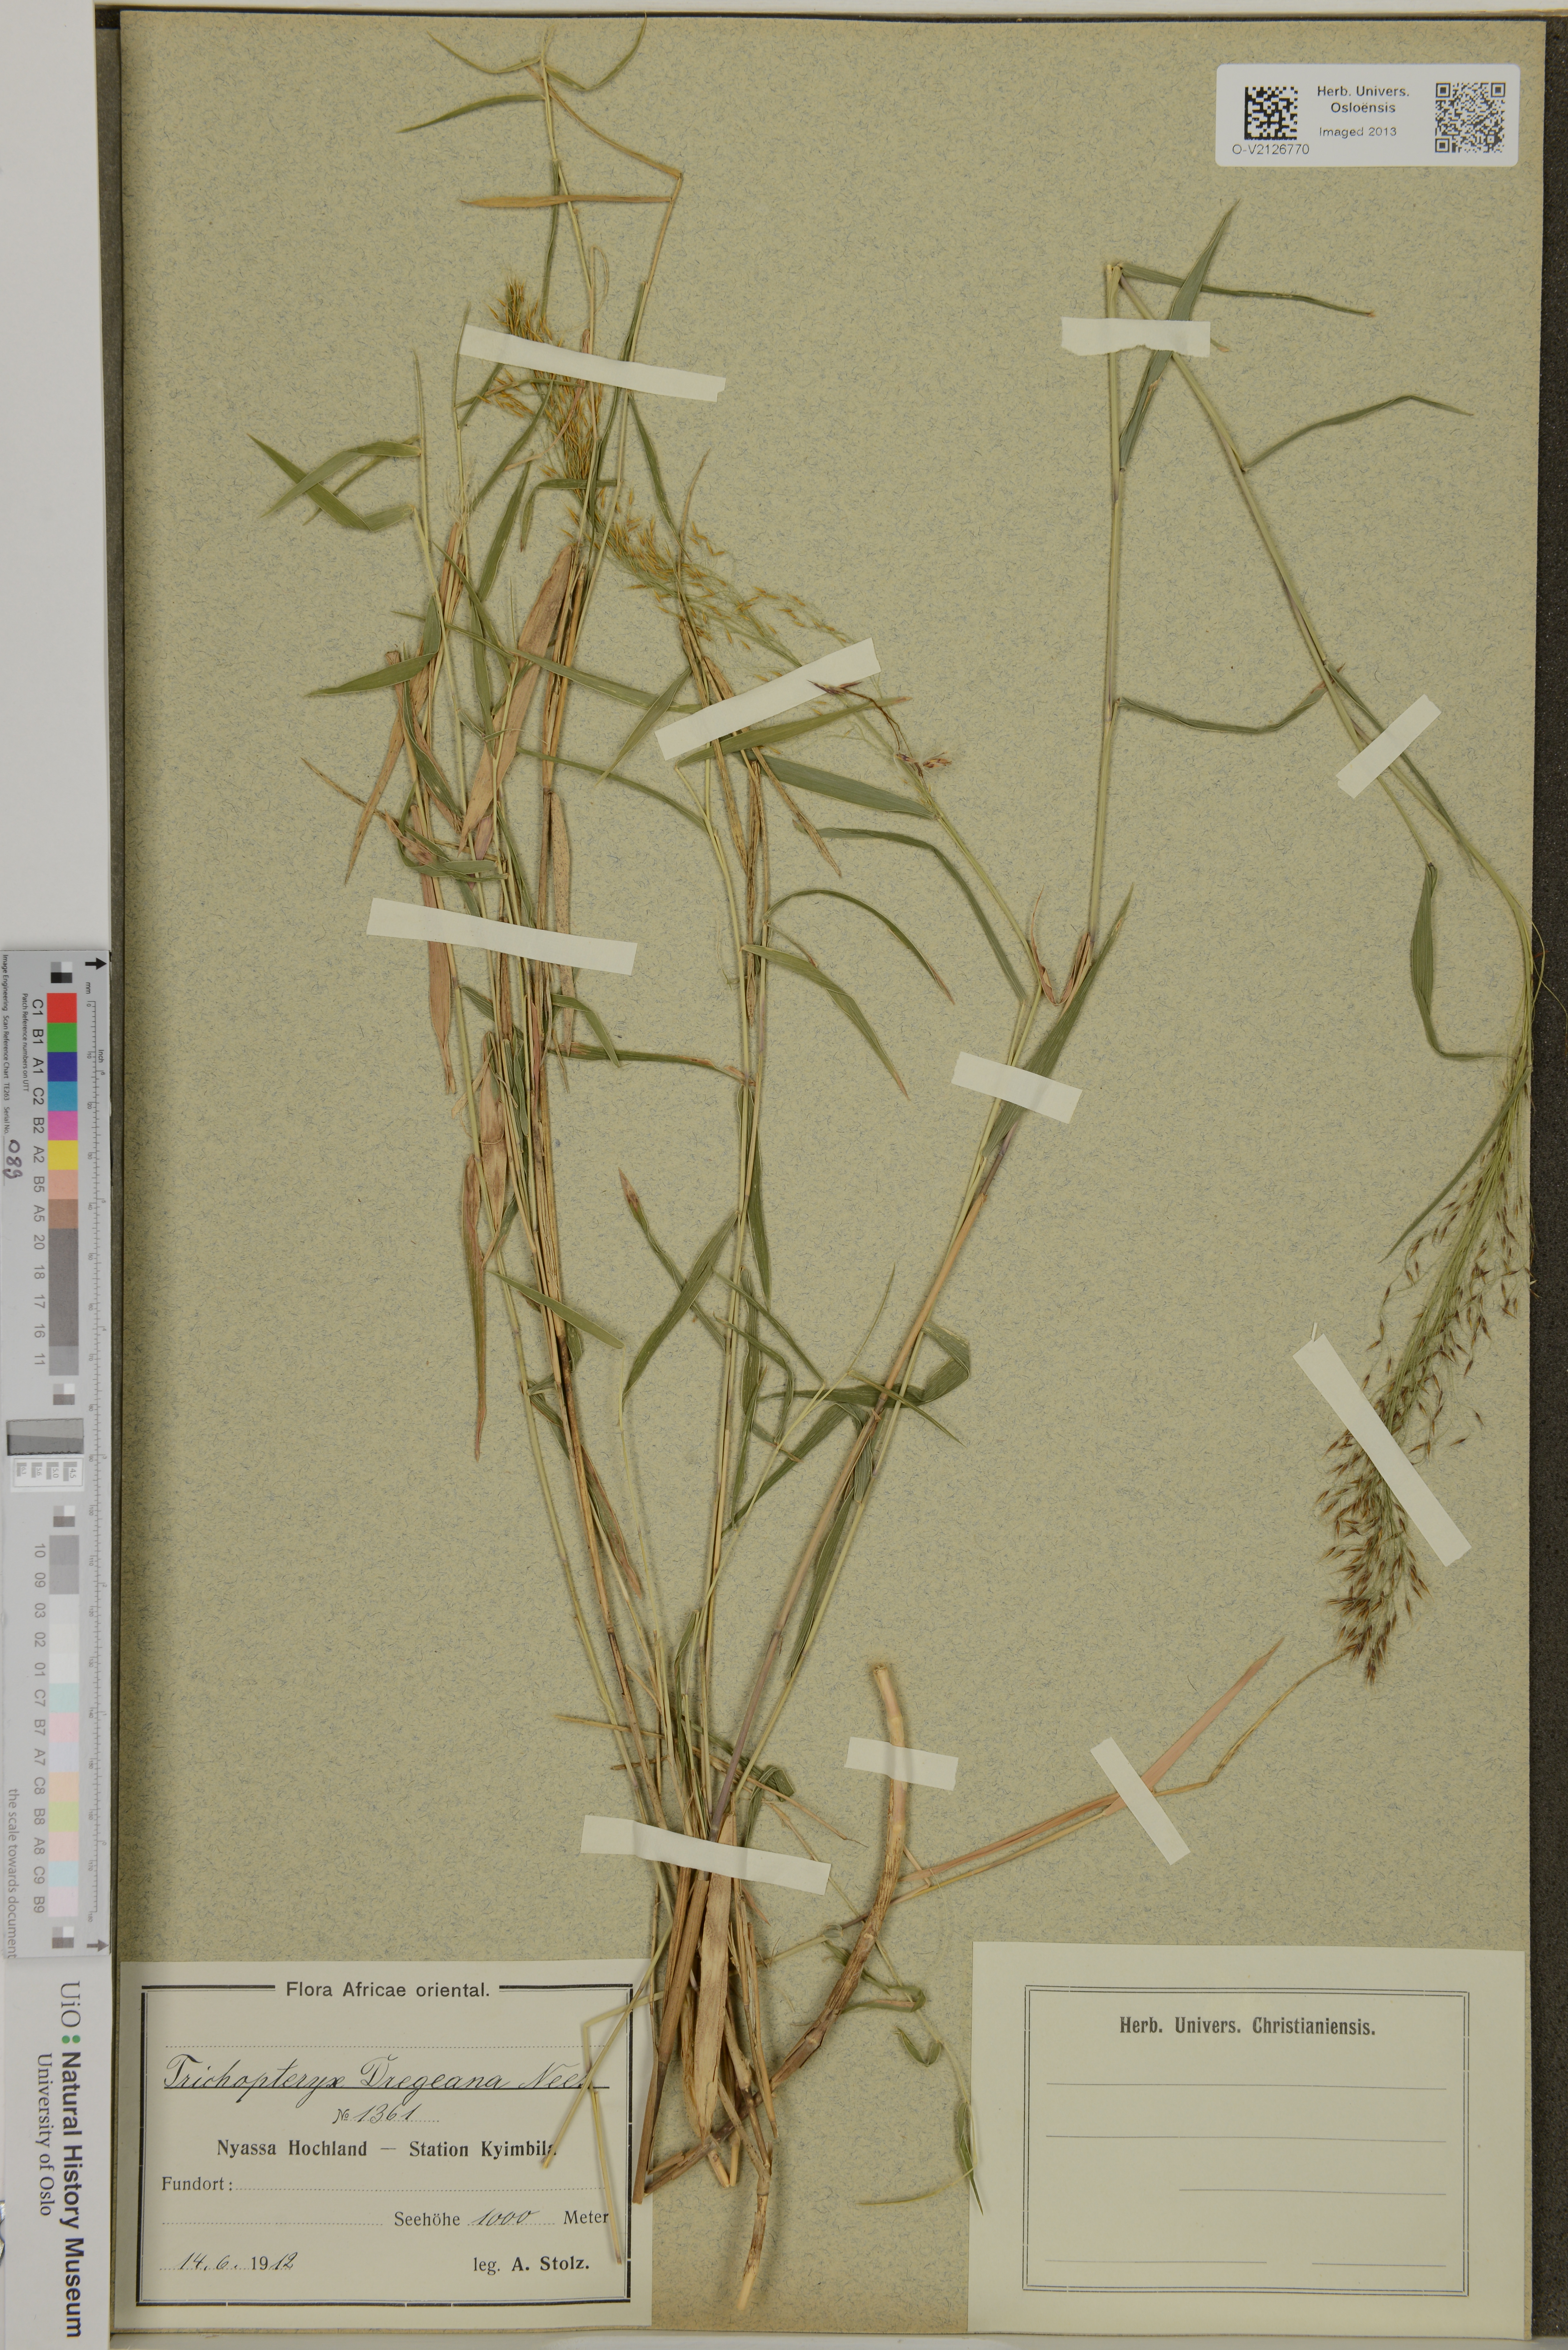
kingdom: Plantae
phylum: Tracheophyta
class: Liliopsida
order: Poales
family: Poaceae
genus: Trichopteryx
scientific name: Trichopteryx dregeana
